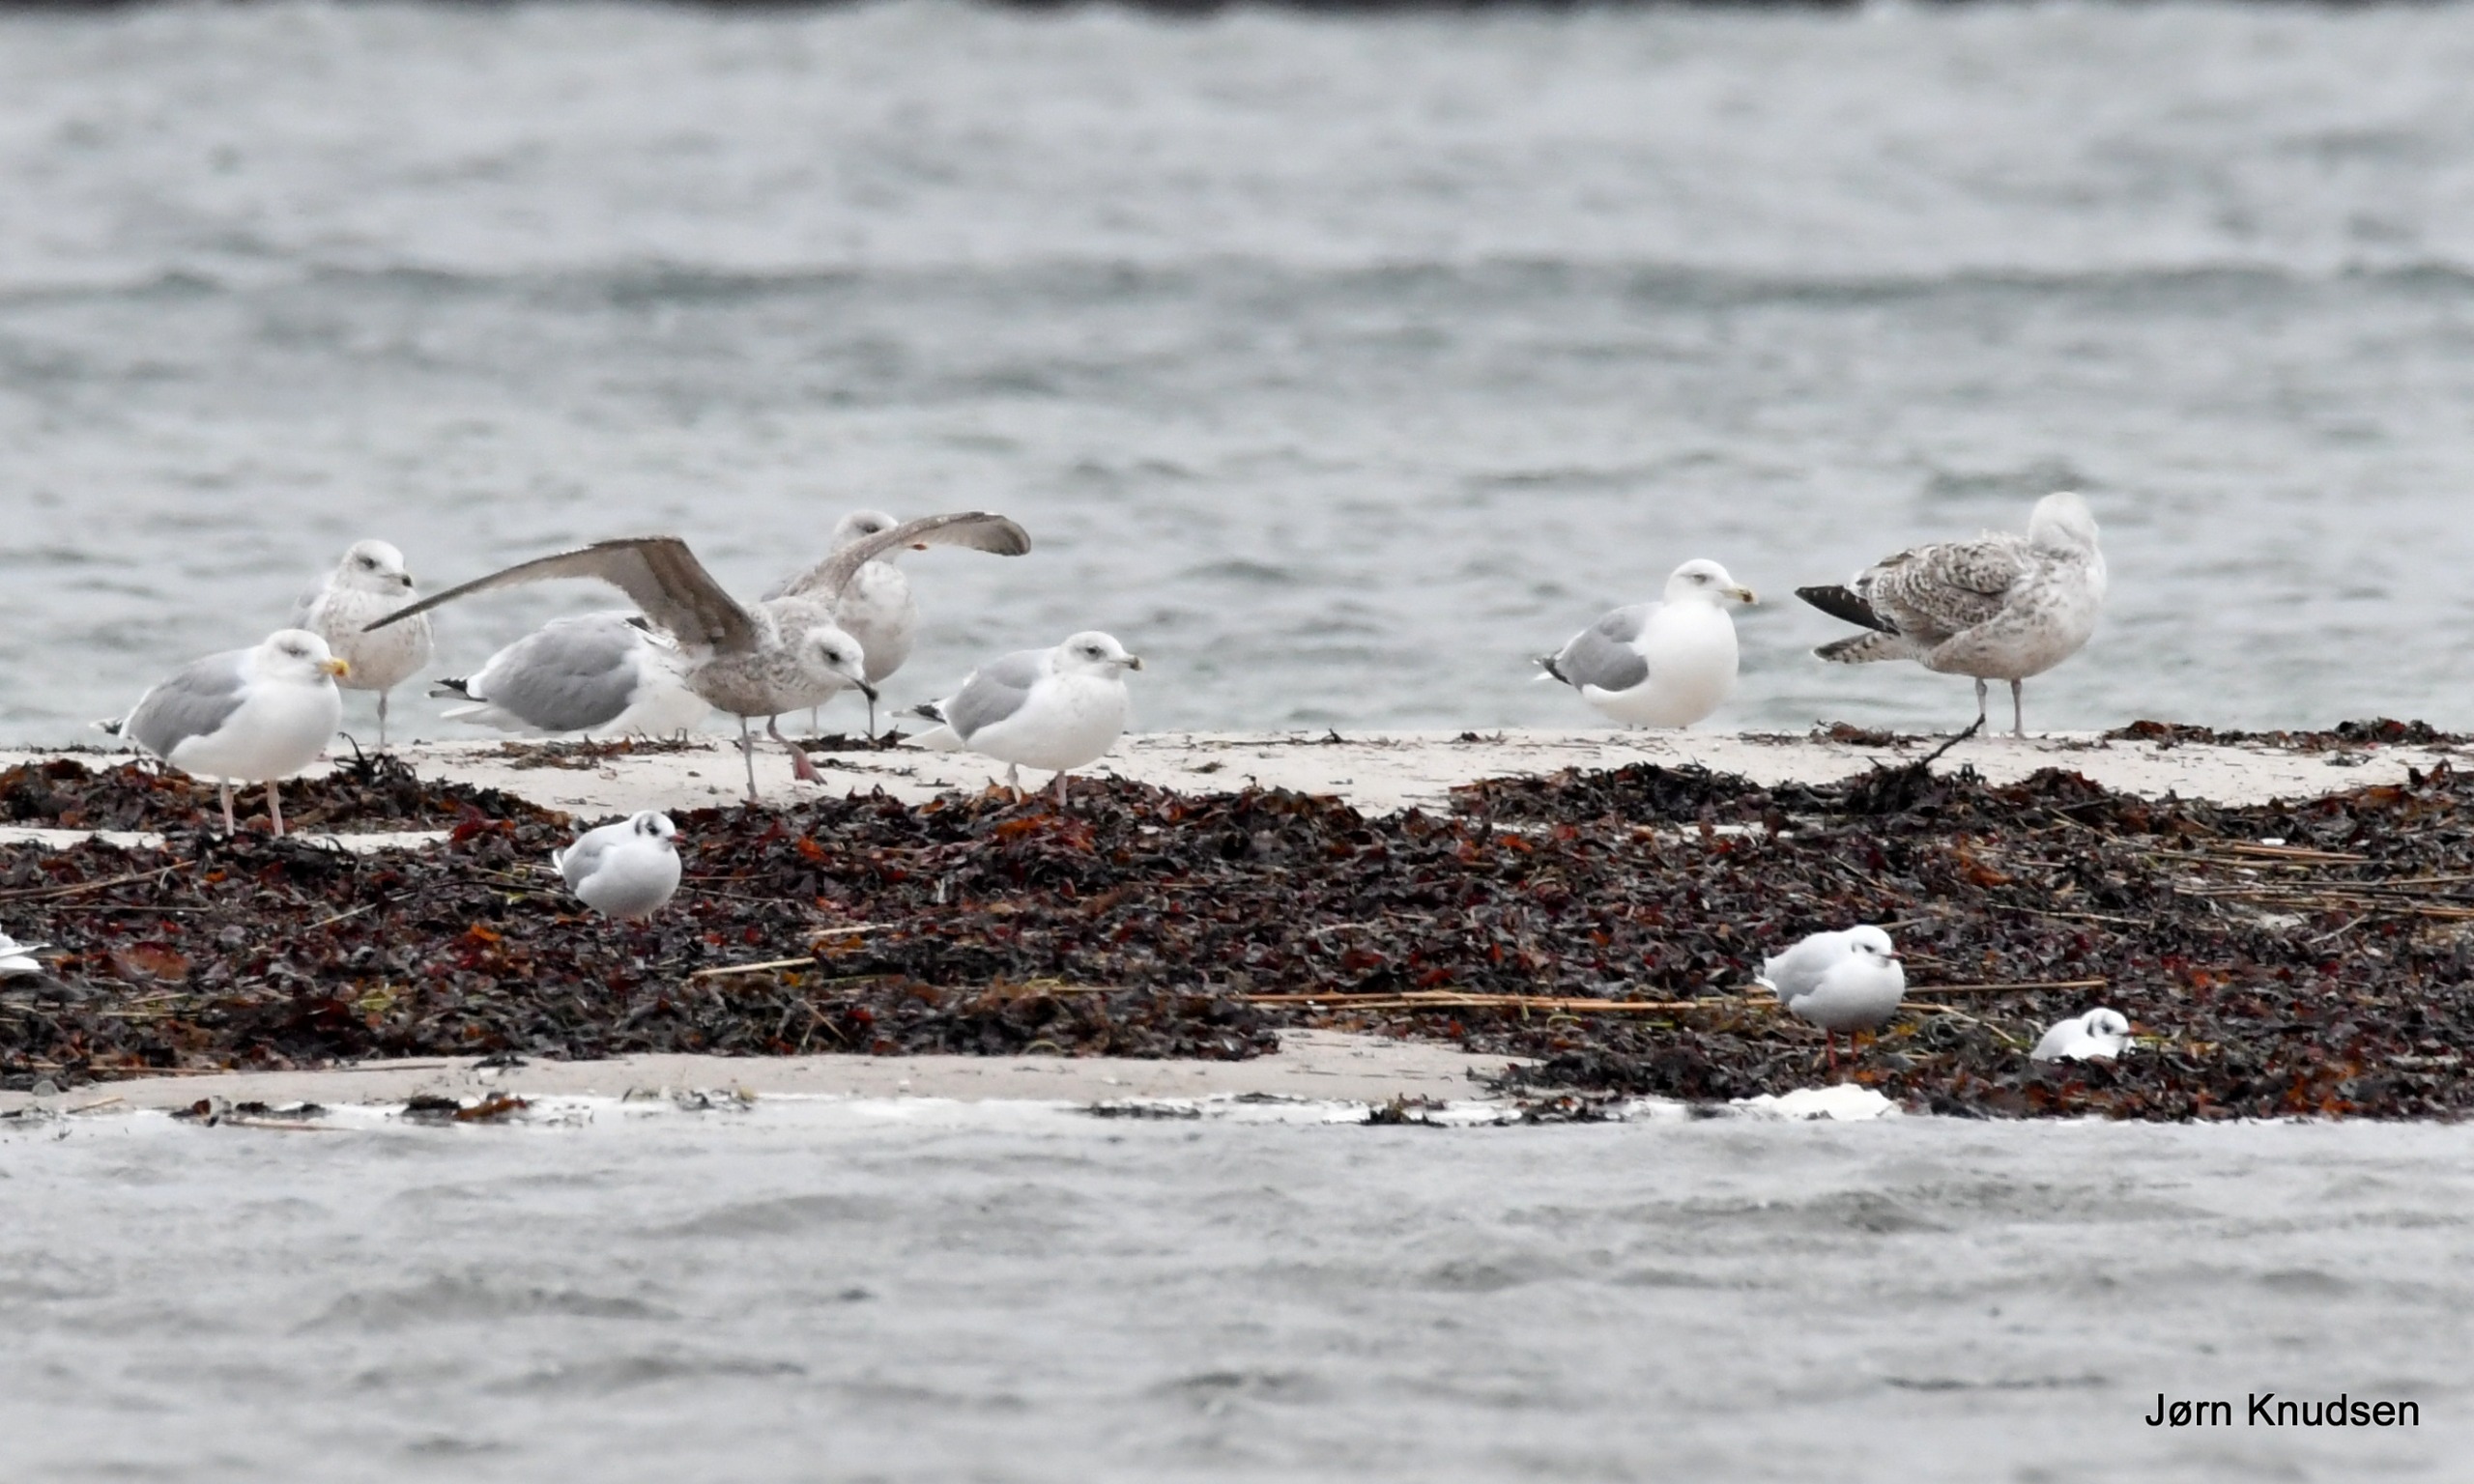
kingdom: Animalia
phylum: Chordata
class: Aves
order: Charadriiformes
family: Laridae
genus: Larus
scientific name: Larus argentatus
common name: Sølvmåge
